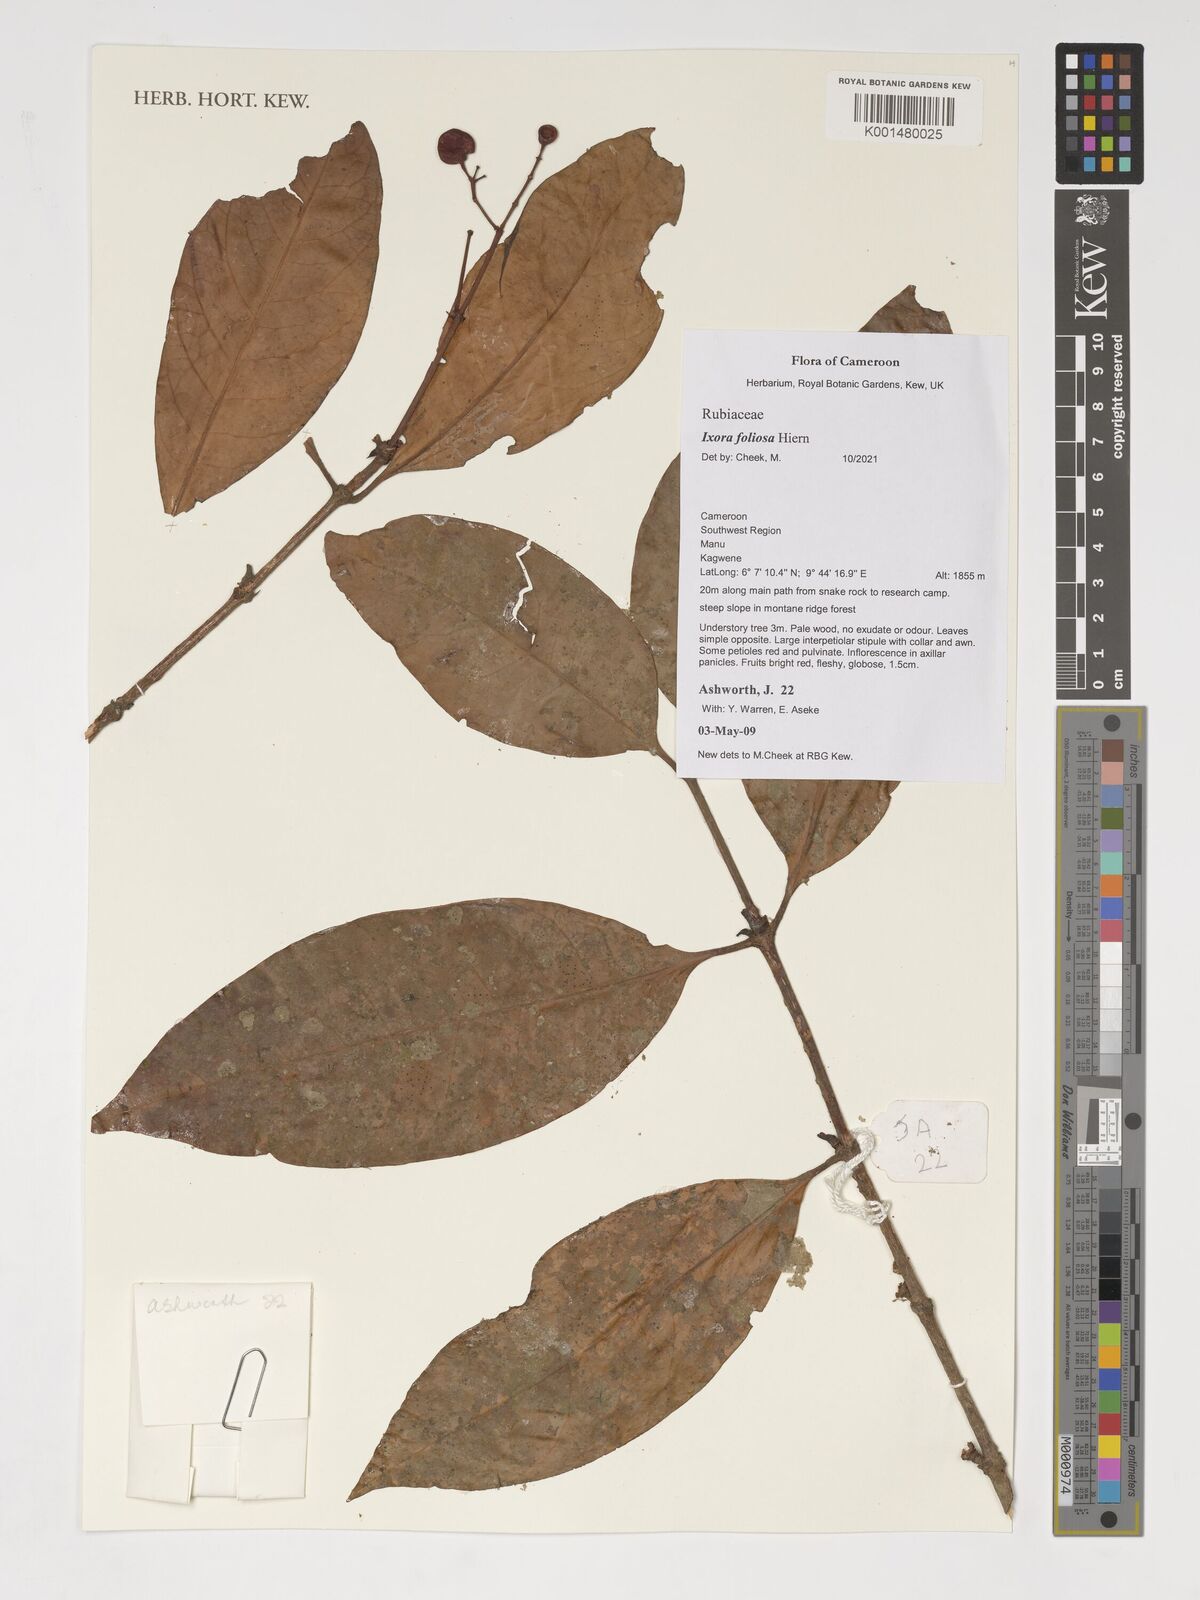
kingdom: Plantae
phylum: Tracheophyta
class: Magnoliopsida
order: Gentianales
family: Rubiaceae
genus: Ixora
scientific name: Ixora foliosa
